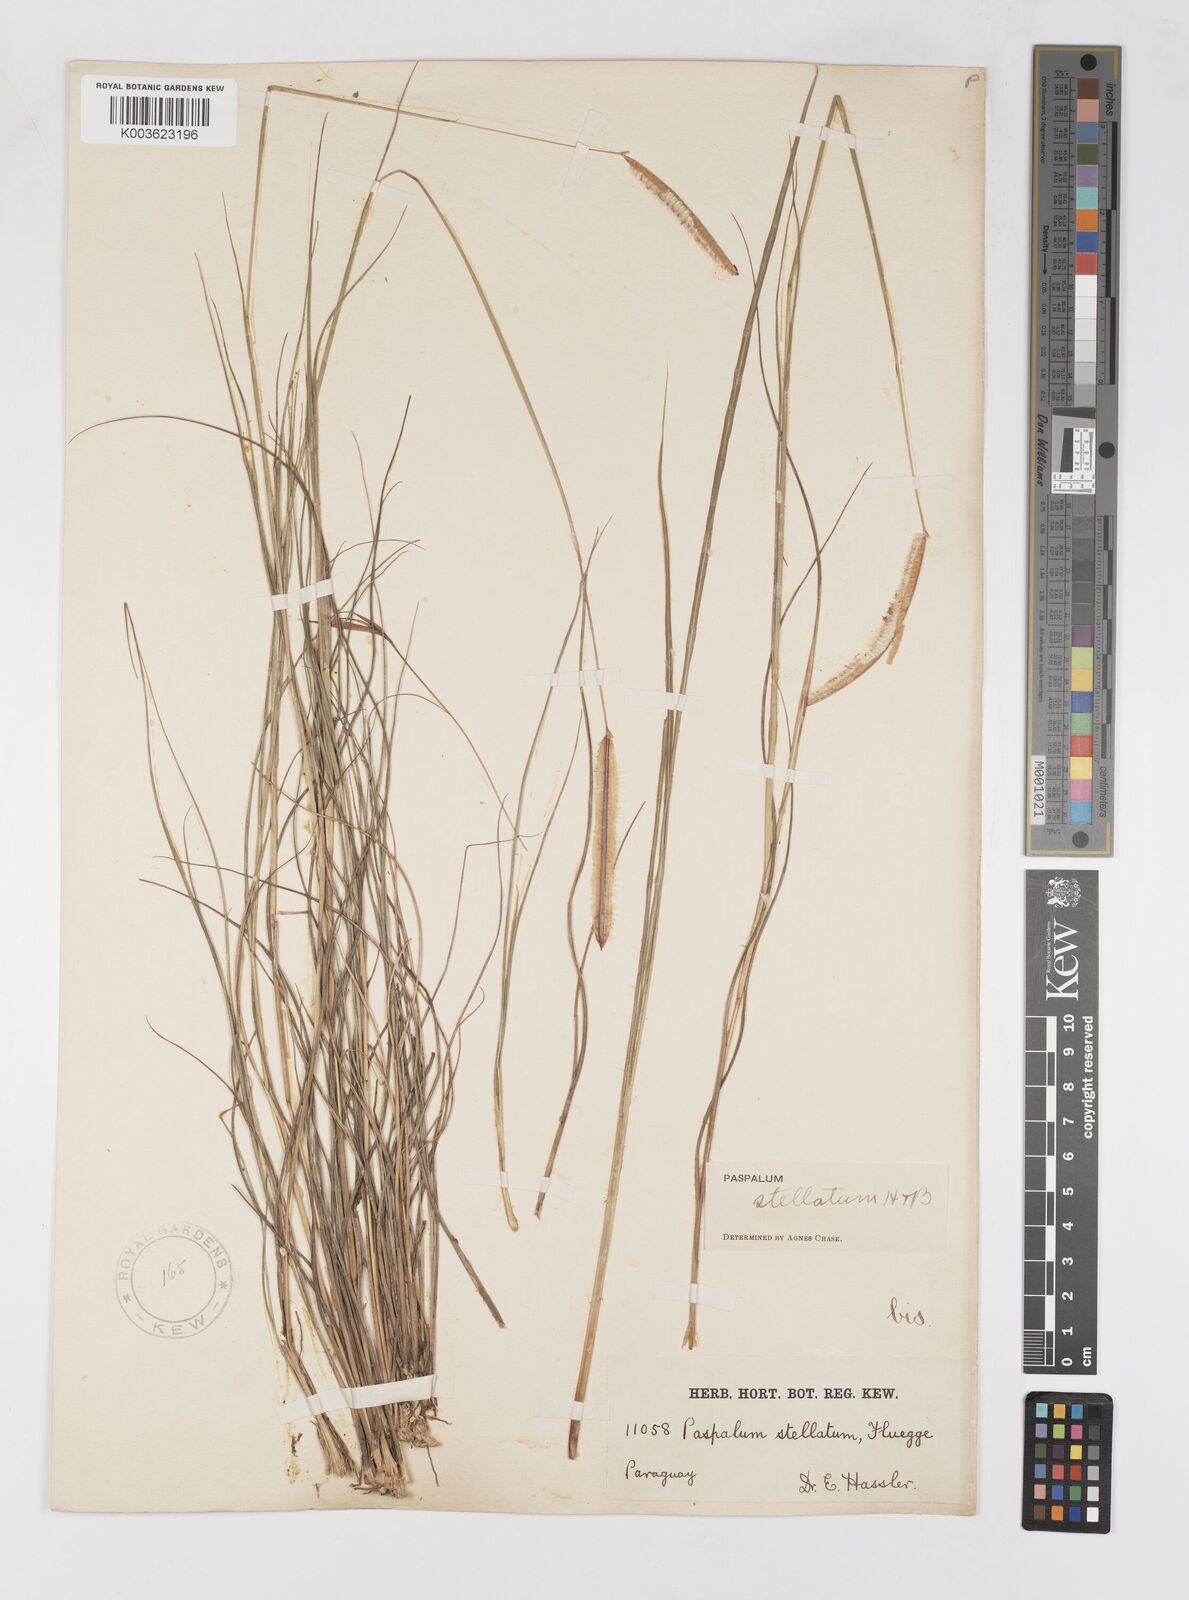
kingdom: Plantae
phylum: Tracheophyta
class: Liliopsida
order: Poales
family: Poaceae
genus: Paspalum
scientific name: Paspalum stellatum
